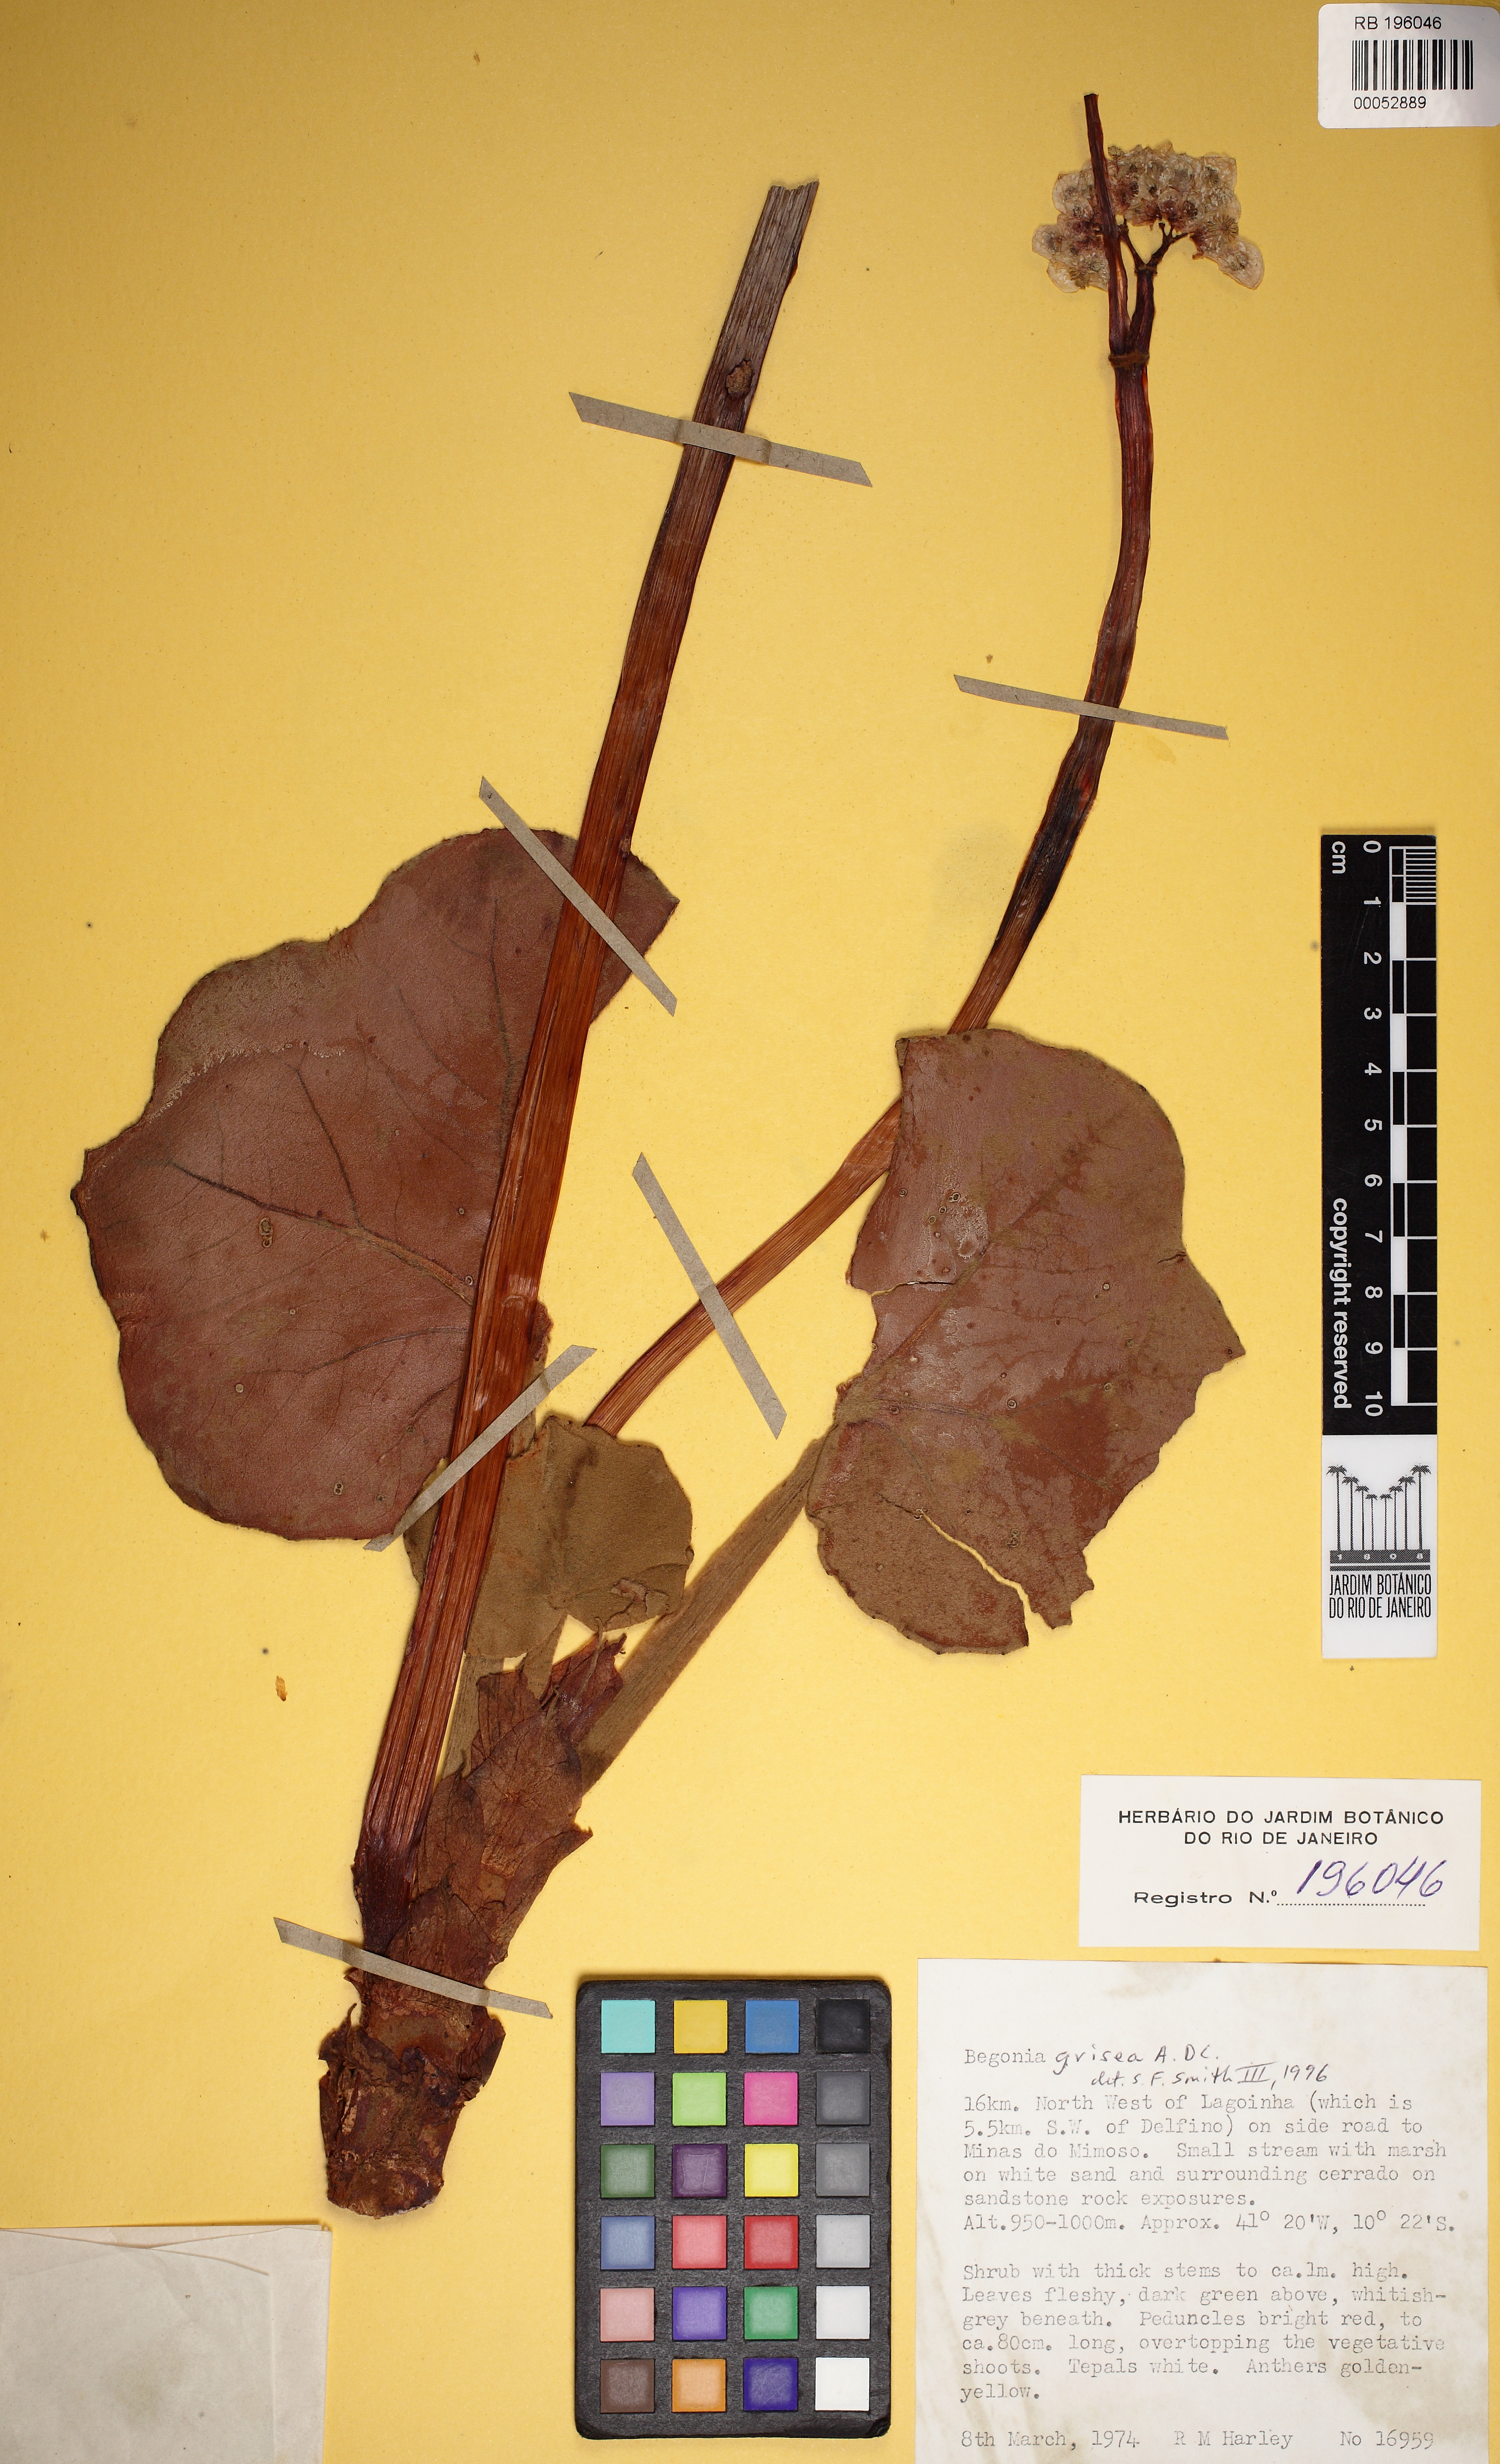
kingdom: Plantae
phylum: Tracheophyta
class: Magnoliopsida
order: Cucurbitales
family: Begoniaceae
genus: Begonia
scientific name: Begonia pernambucensis
